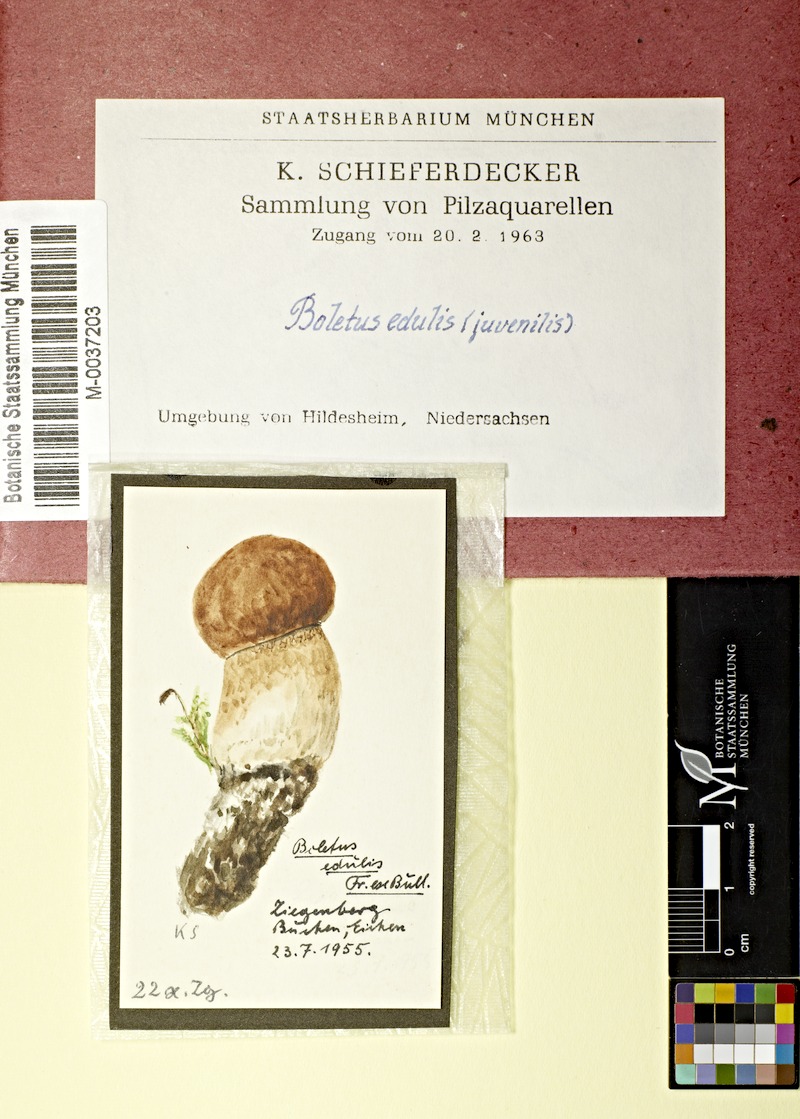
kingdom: Fungi
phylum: Basidiomycota
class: Agaricomycetes
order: Boletales
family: Boletaceae
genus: Boletus
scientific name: Boletus edulis
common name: Cep
